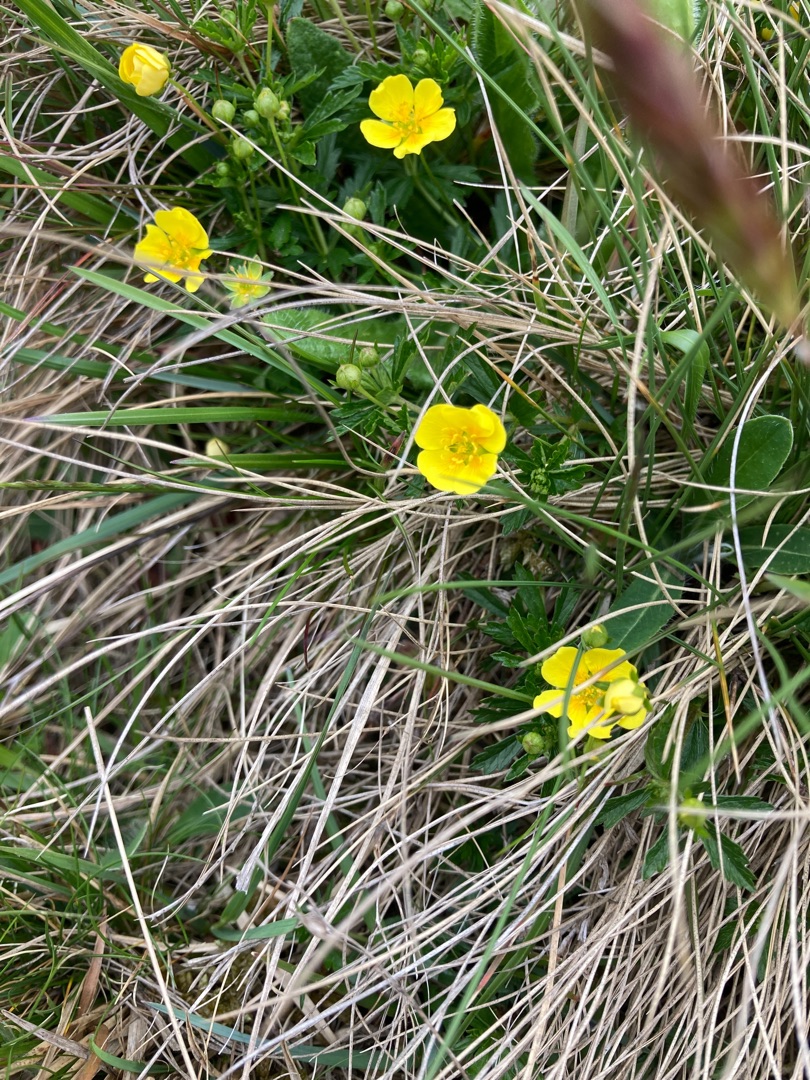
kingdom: Plantae
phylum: Tracheophyta
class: Magnoliopsida
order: Rosales
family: Rosaceae
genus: Potentilla
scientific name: Potentilla verna
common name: Vår-potentil
